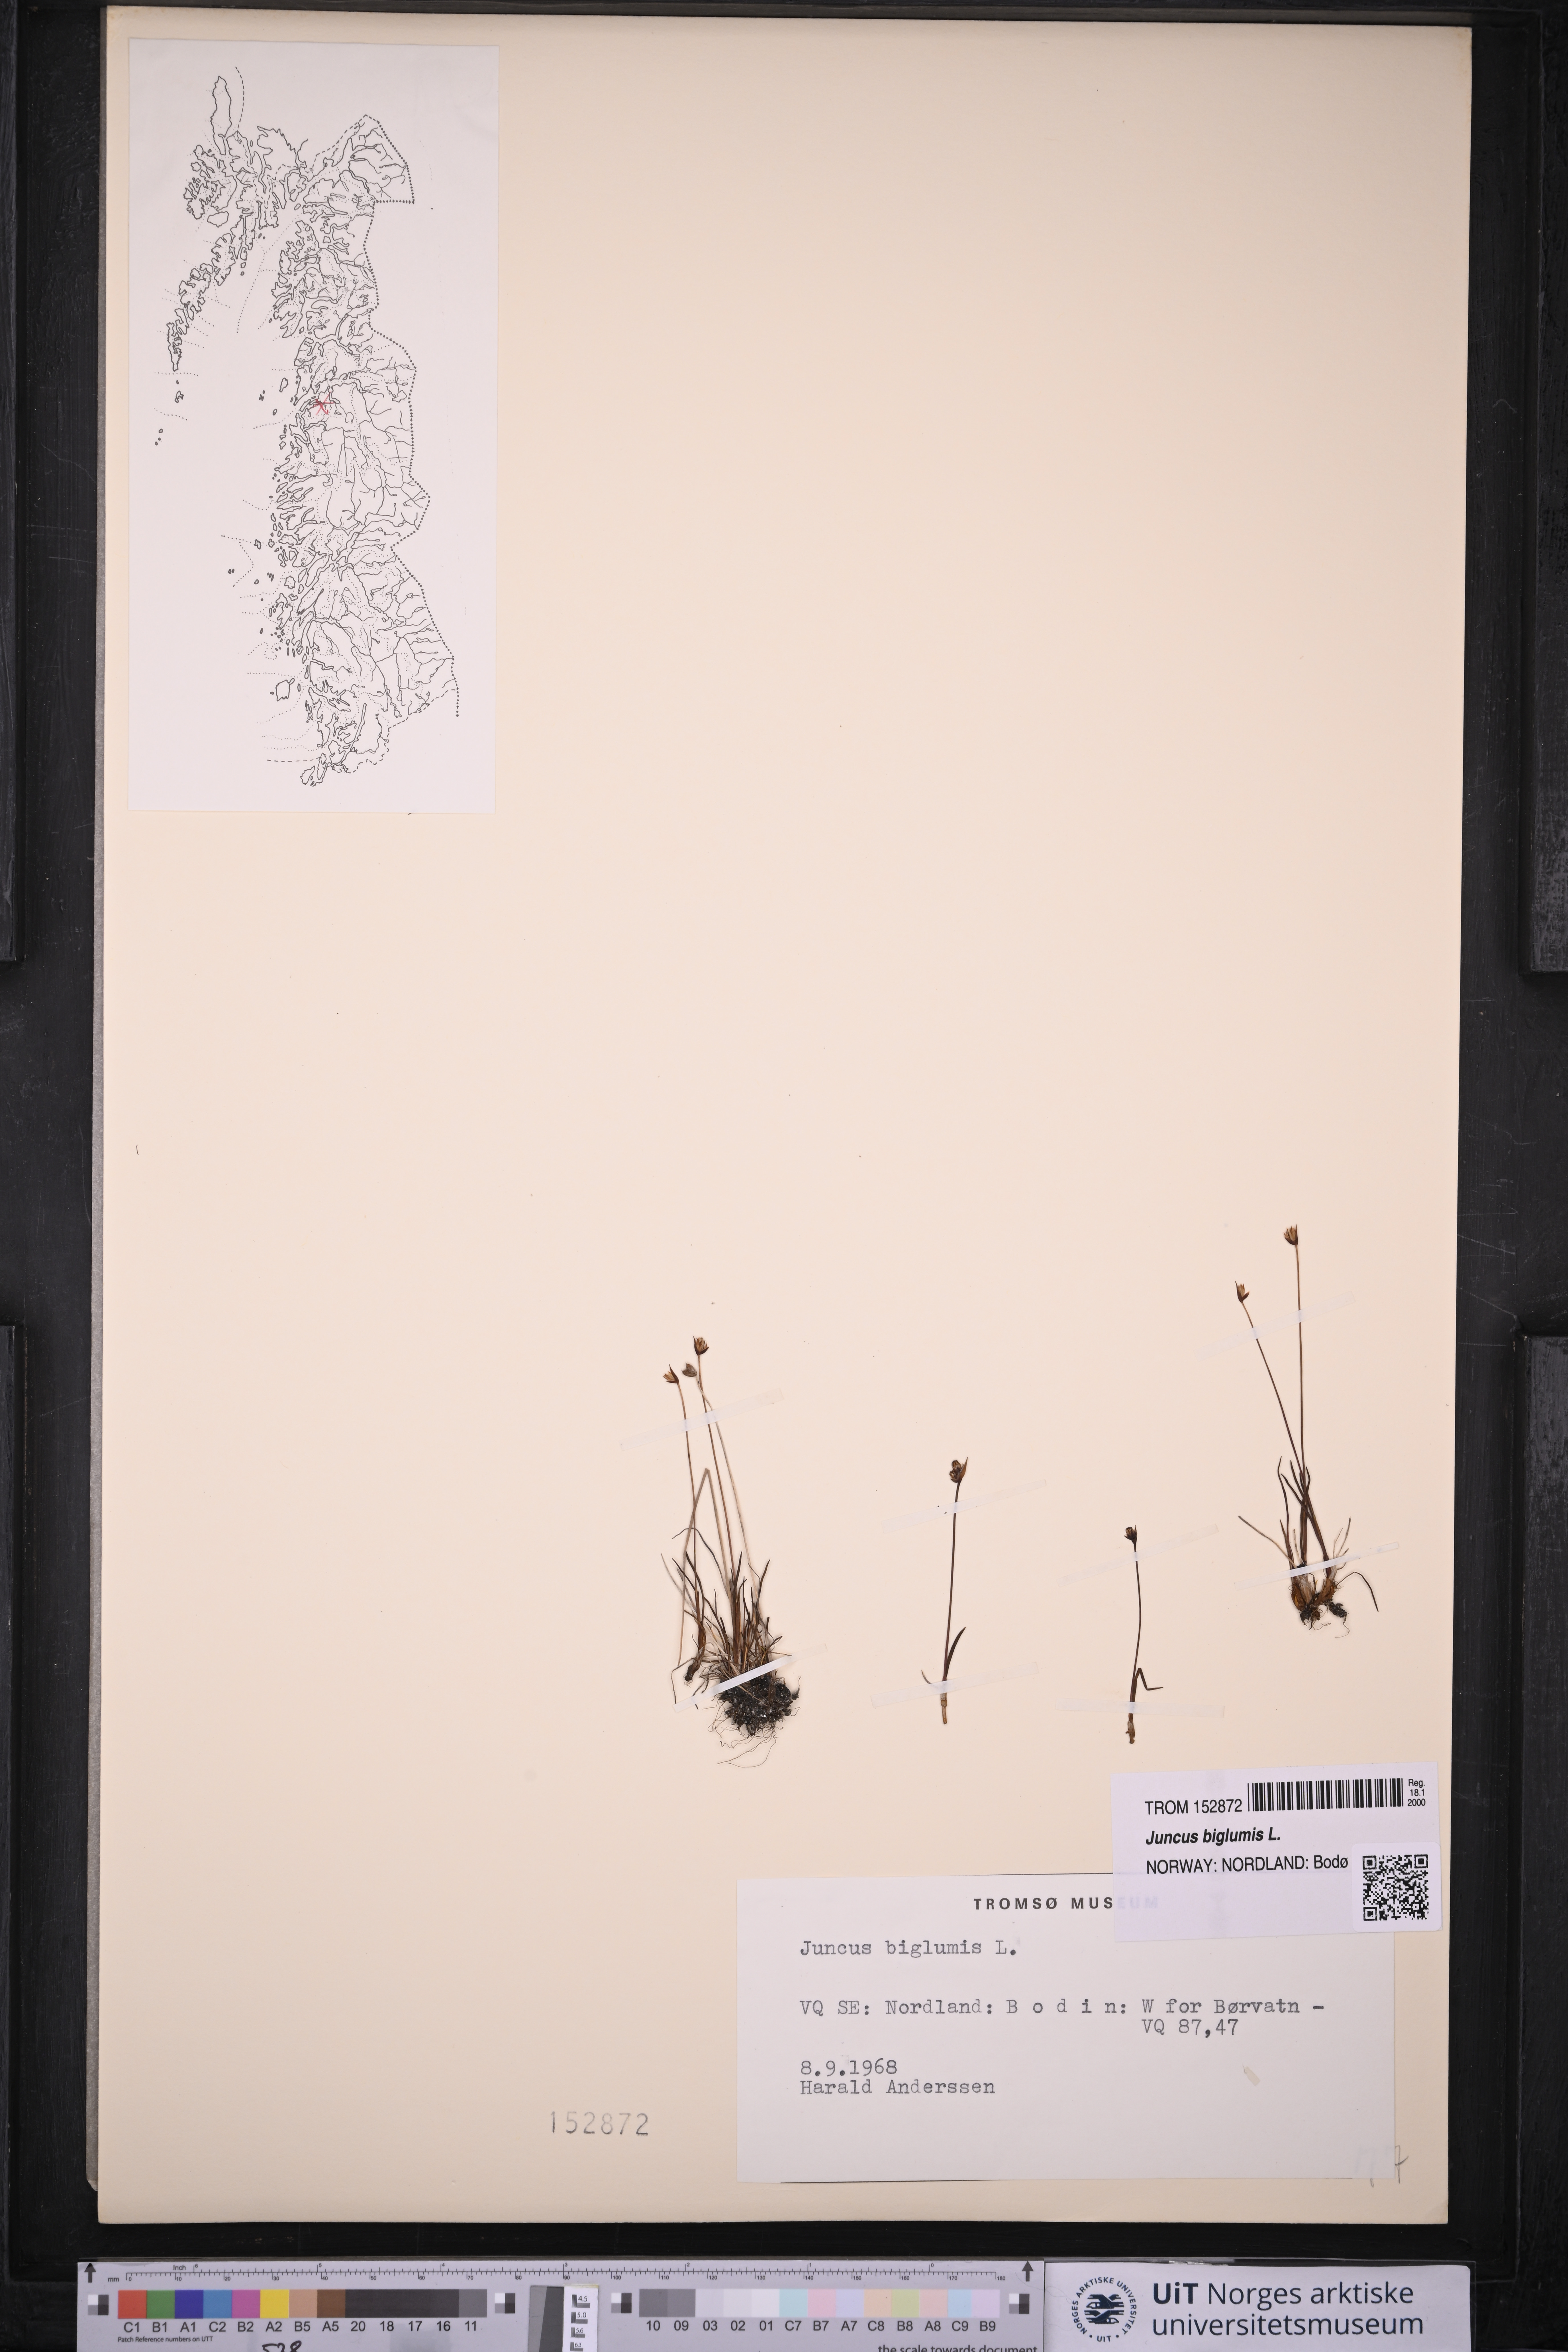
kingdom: Plantae
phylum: Tracheophyta
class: Liliopsida
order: Poales
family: Juncaceae
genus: Juncus
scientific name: Juncus biglumis
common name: Two-flowered rush
